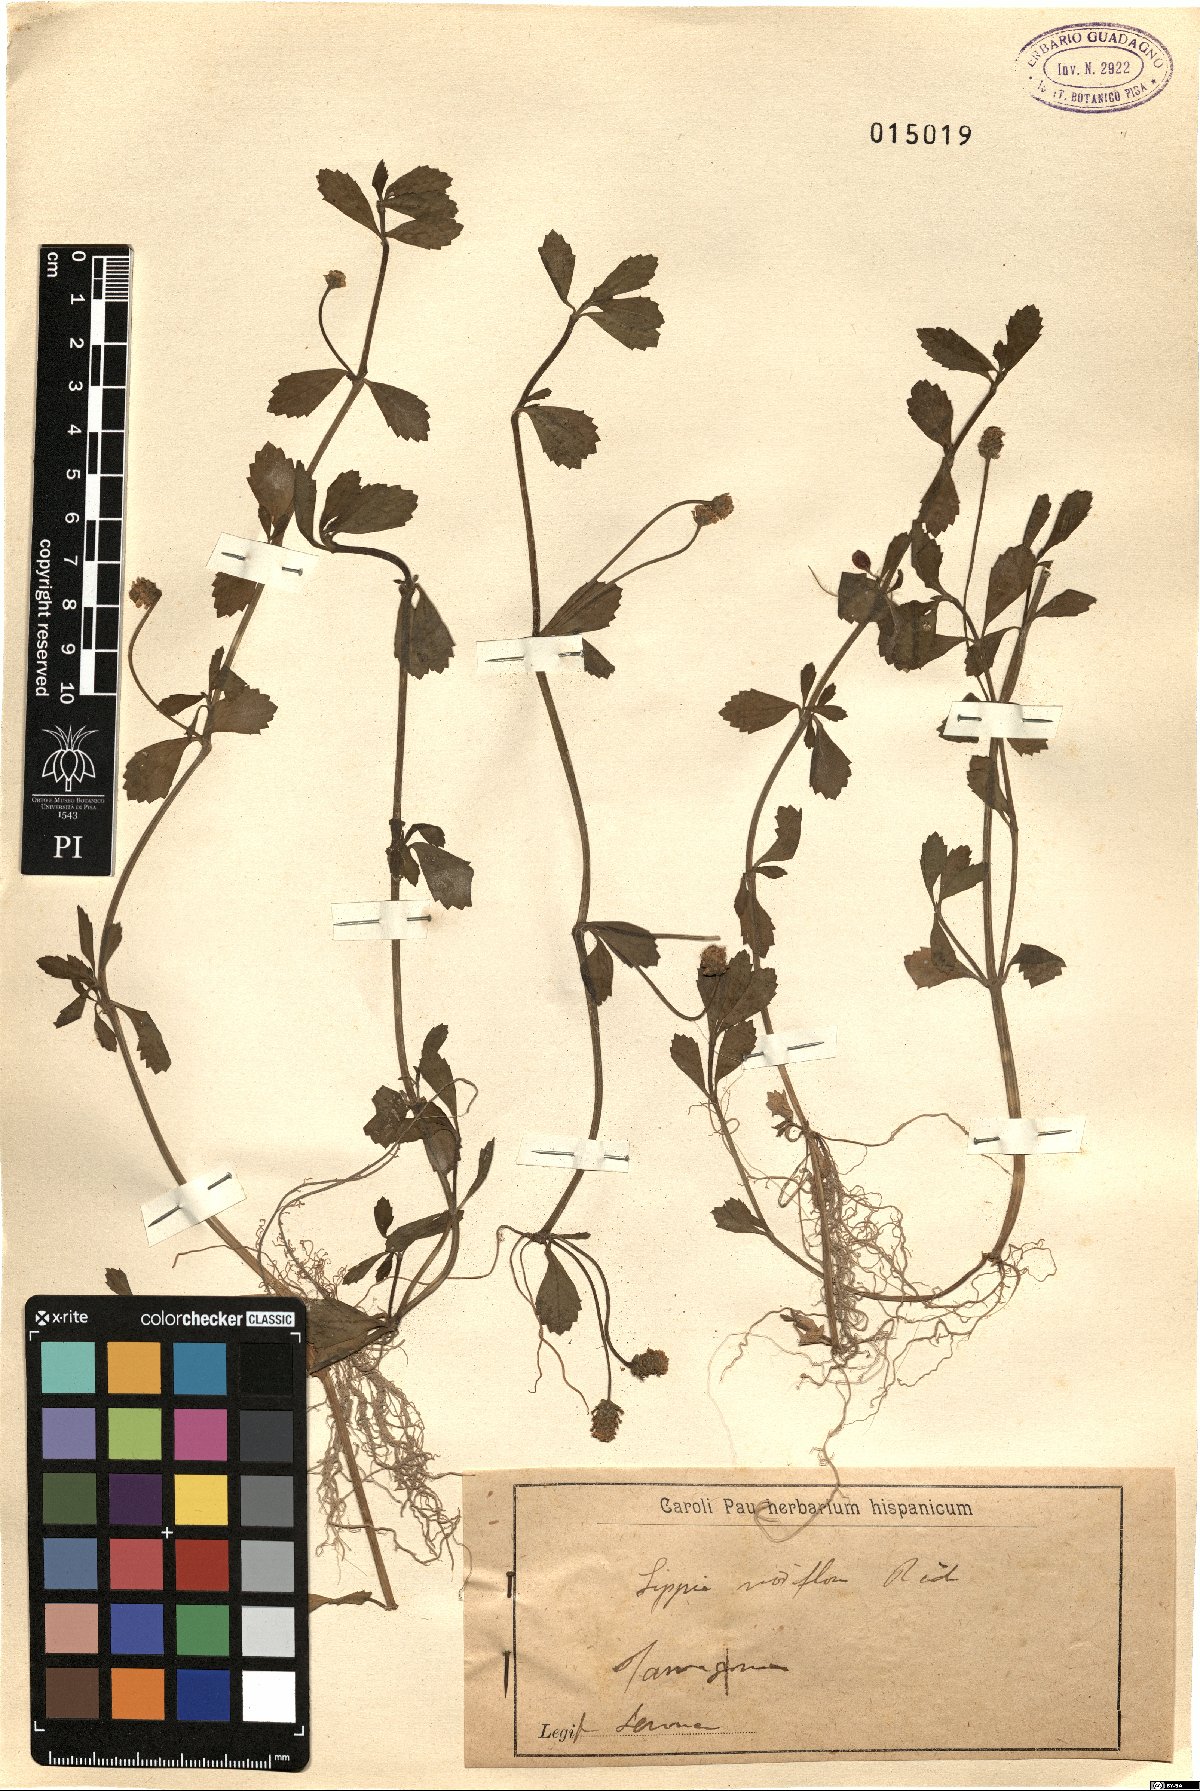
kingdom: Plantae
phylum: Tracheophyta
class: Magnoliopsida
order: Lamiales
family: Verbenaceae
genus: Phyla
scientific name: Phyla nodiflora
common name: Frogfruit
